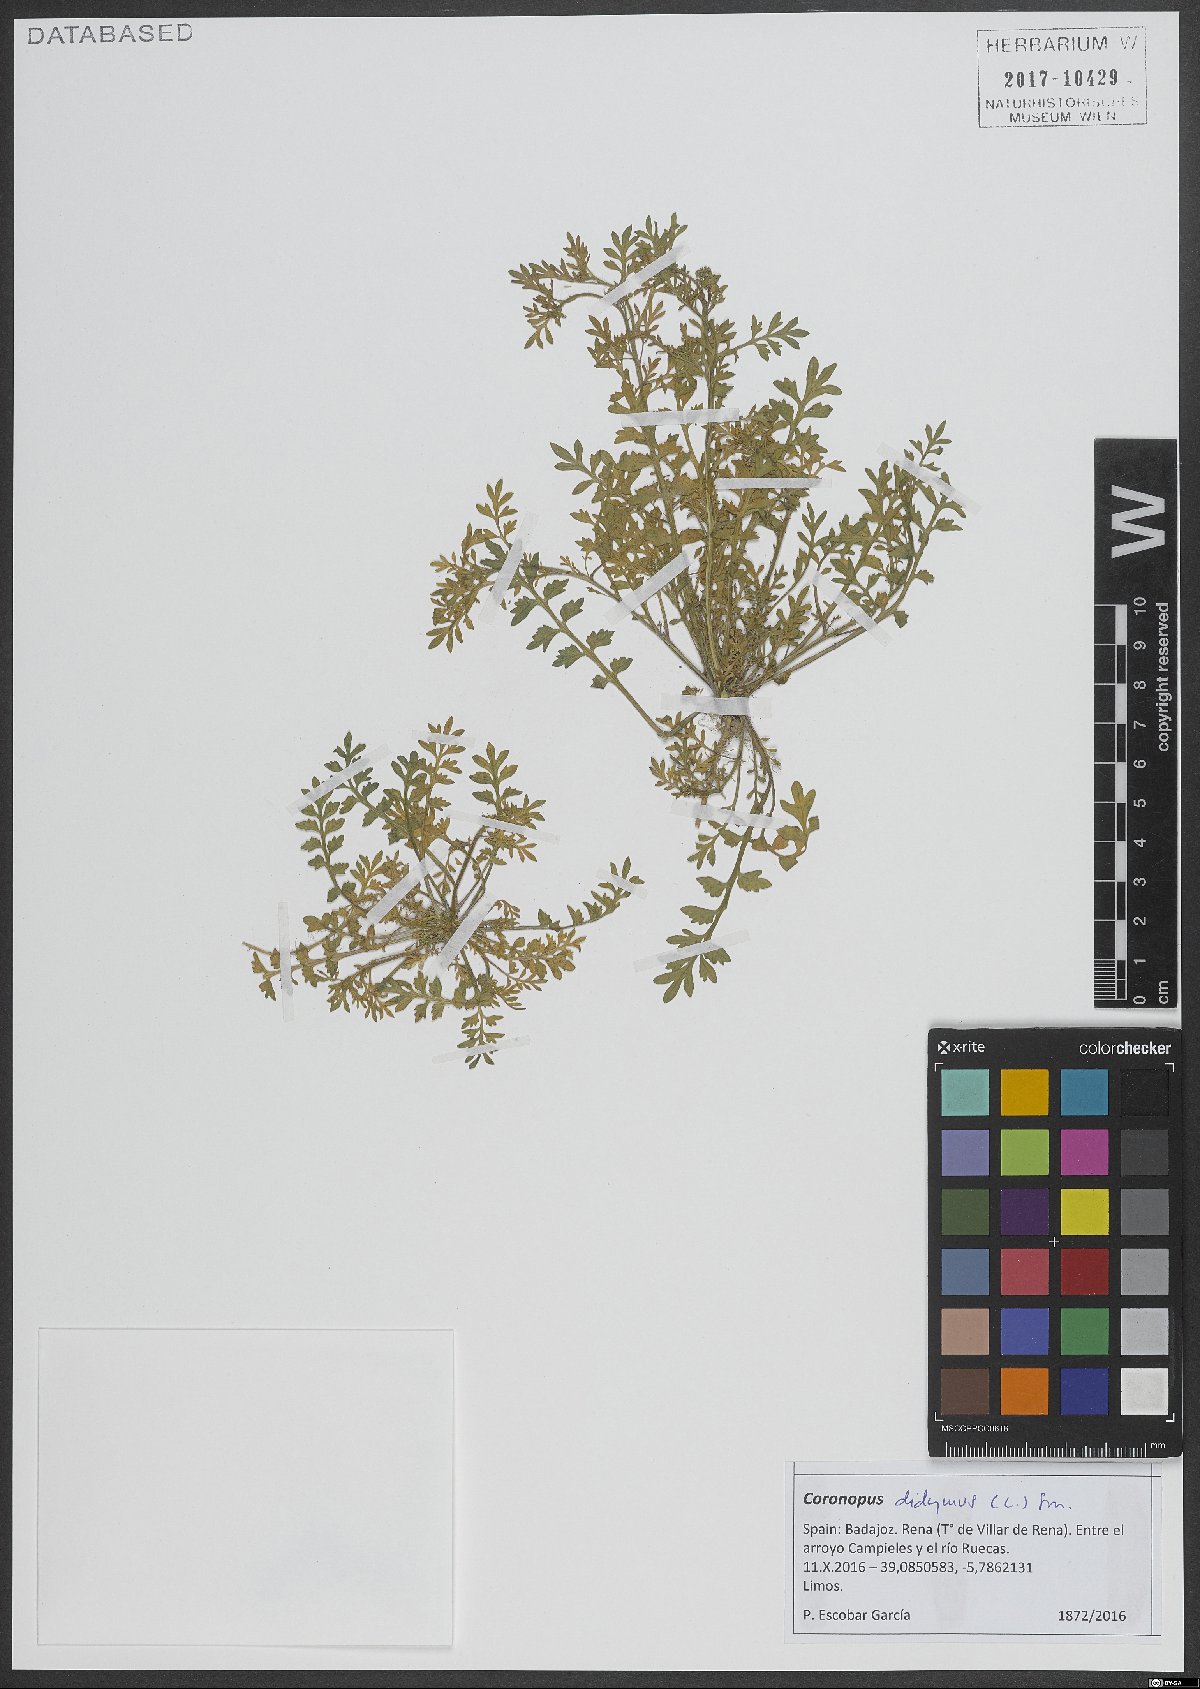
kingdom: Plantae
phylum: Tracheophyta
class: Magnoliopsida
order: Brassicales
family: Brassicaceae
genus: Lepidium
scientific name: Lepidium didymum
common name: Lesser swinecress
